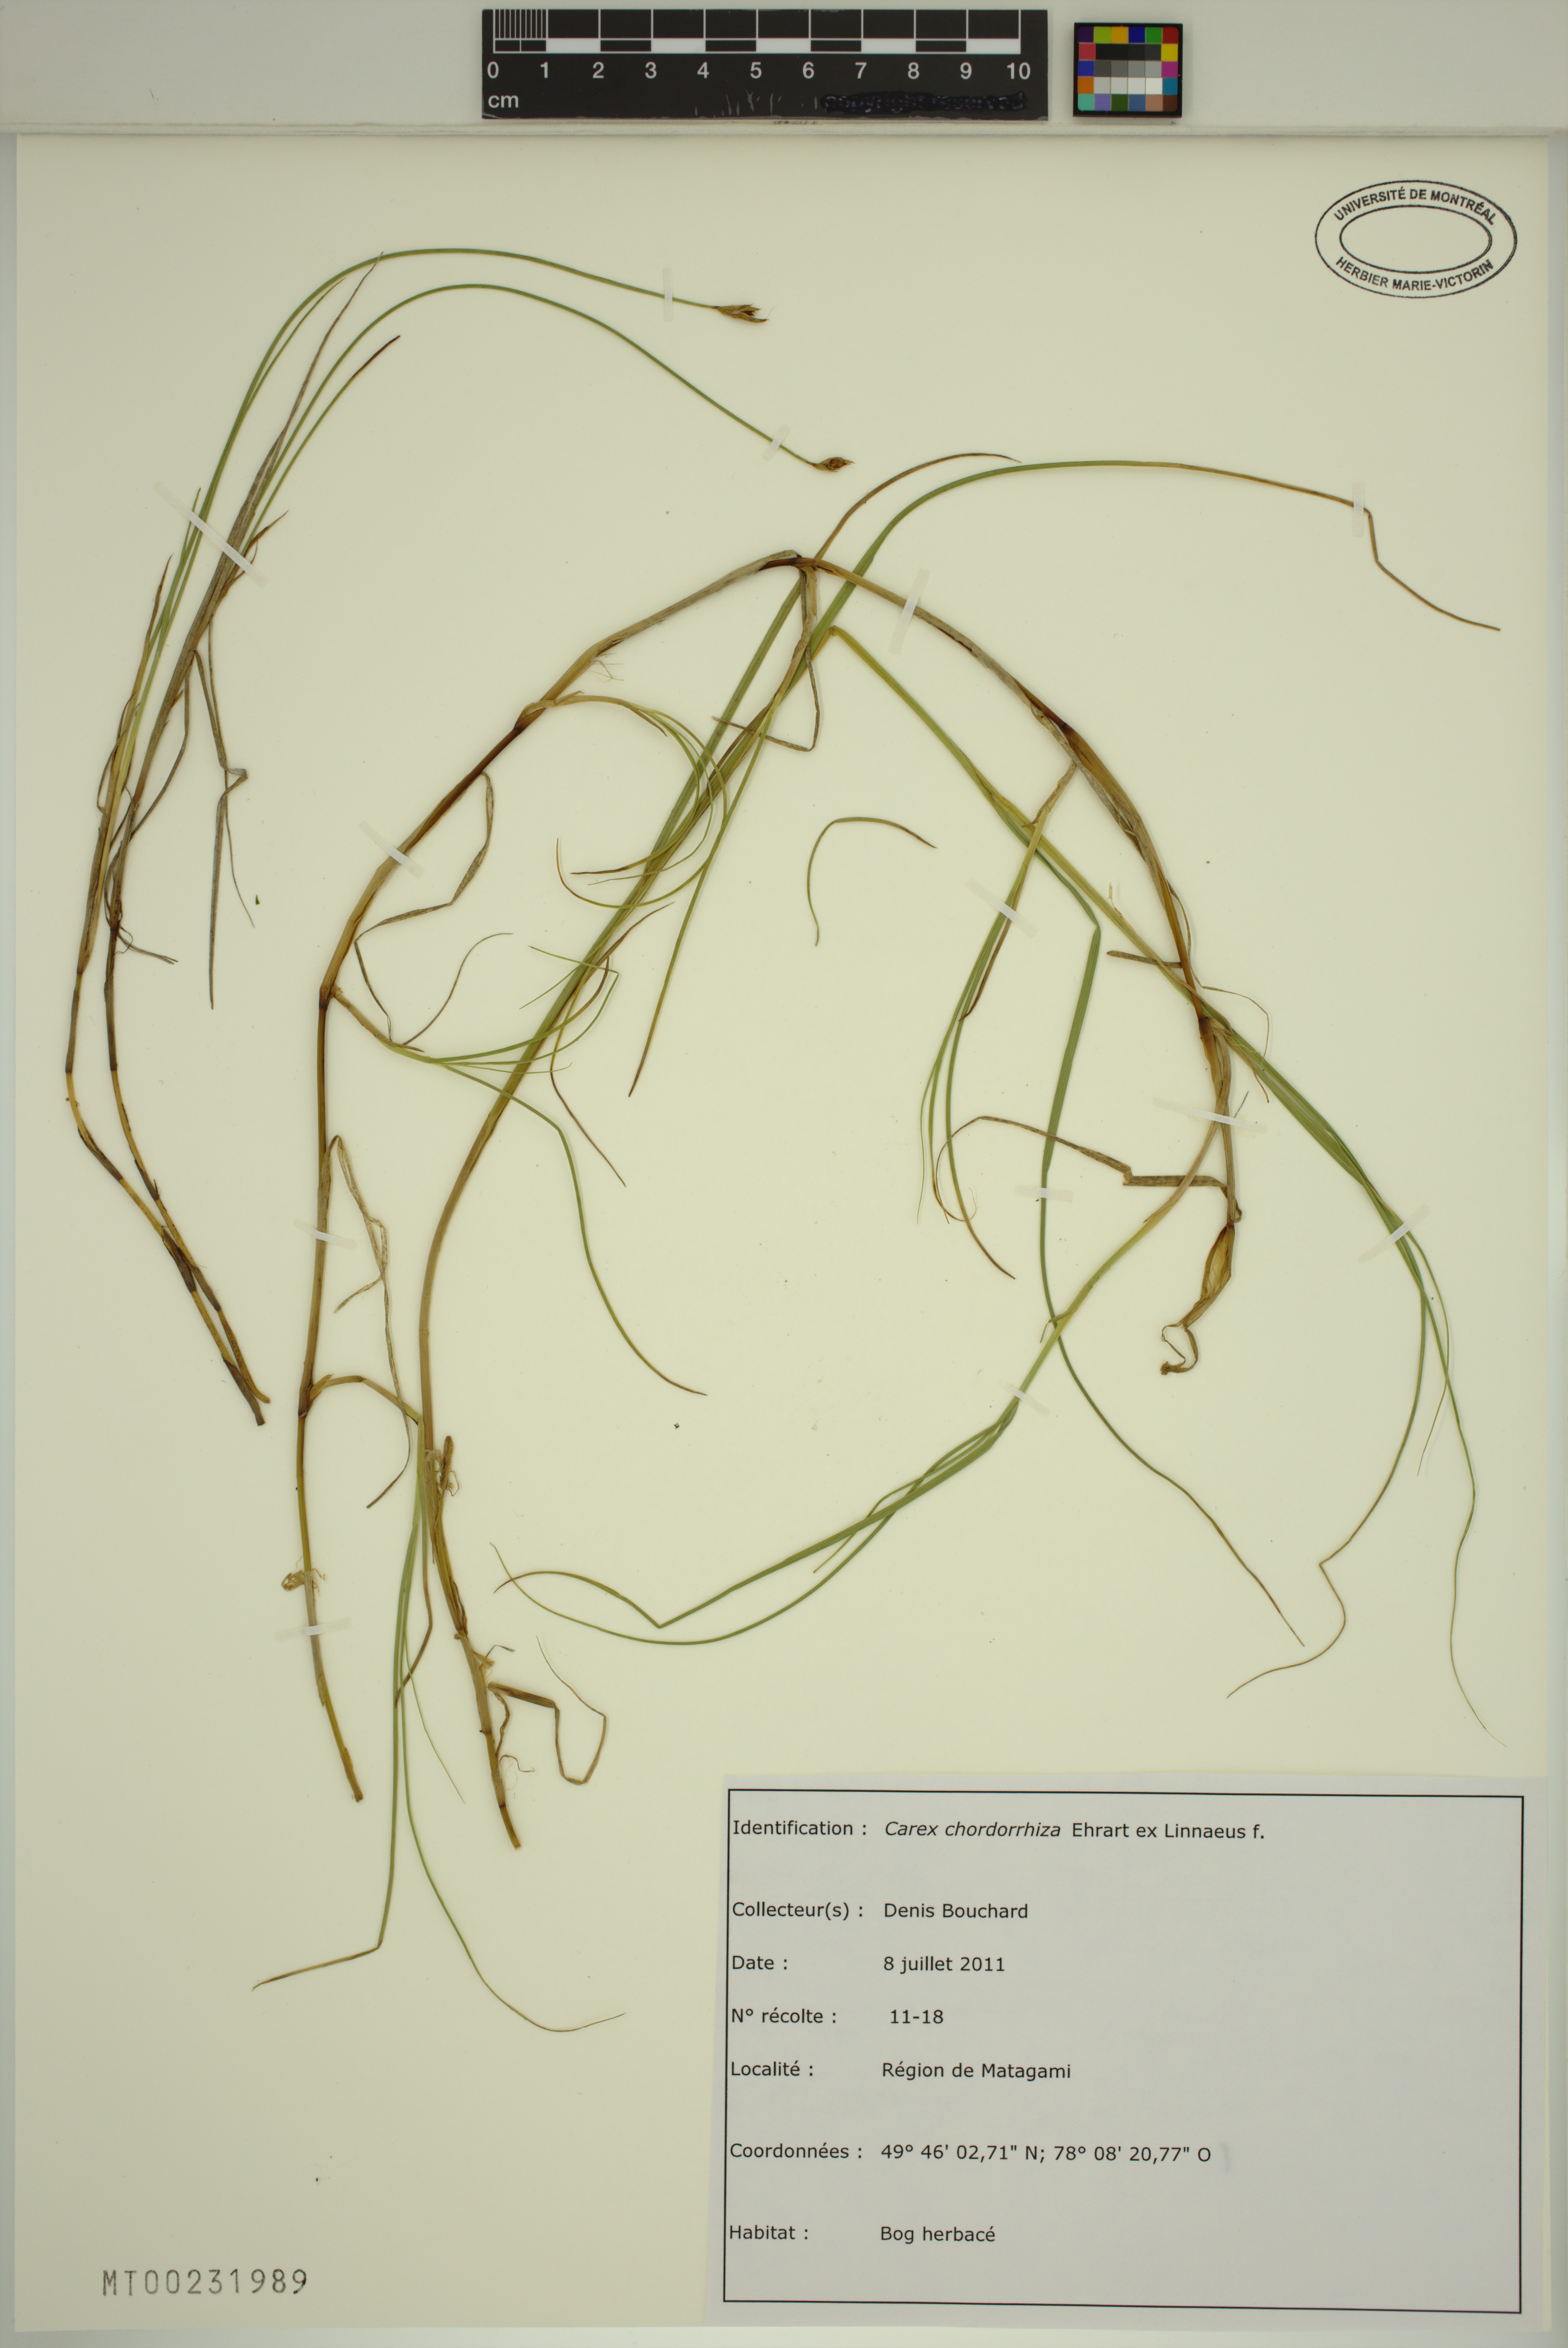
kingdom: Plantae
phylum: Tracheophyta
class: Liliopsida
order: Poales
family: Cyperaceae
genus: Carex
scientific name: Carex chordorrhiza
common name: String sedge
